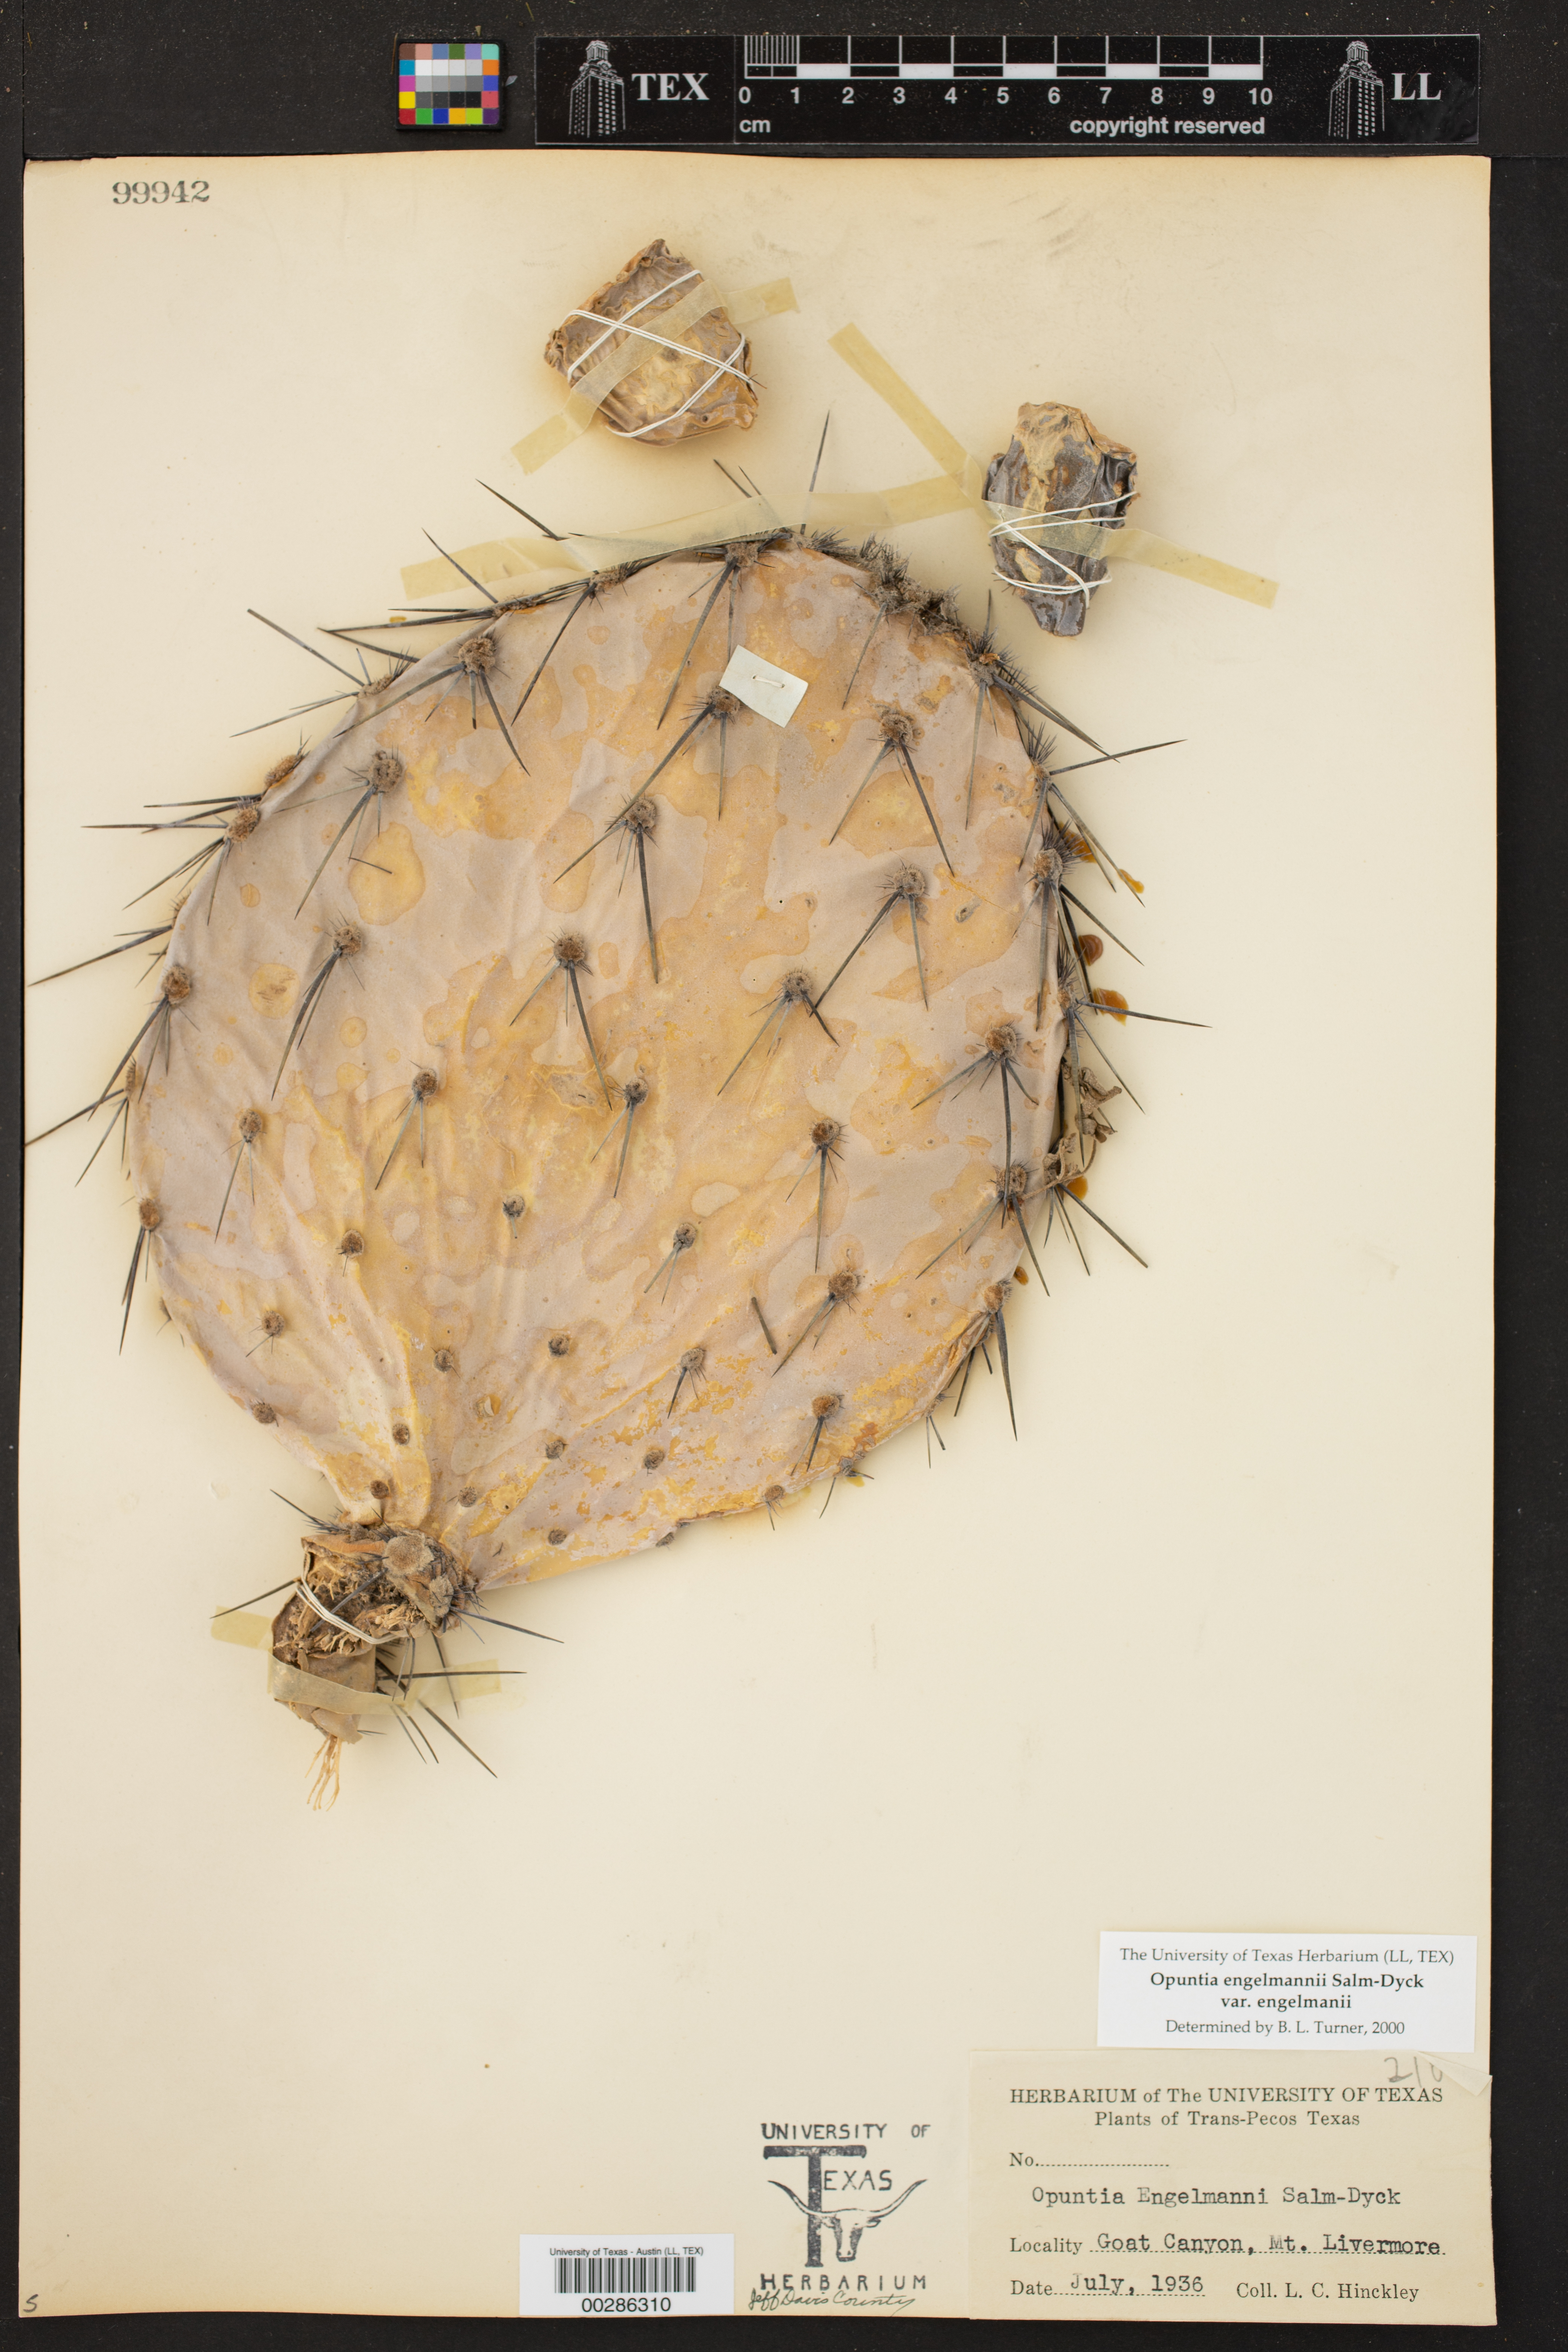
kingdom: Plantae
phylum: Tracheophyta
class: Magnoliopsida
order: Caryophyllales
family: Cactaceae
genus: Opuntia
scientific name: Opuntia engelmannii
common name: Cactus-apple
